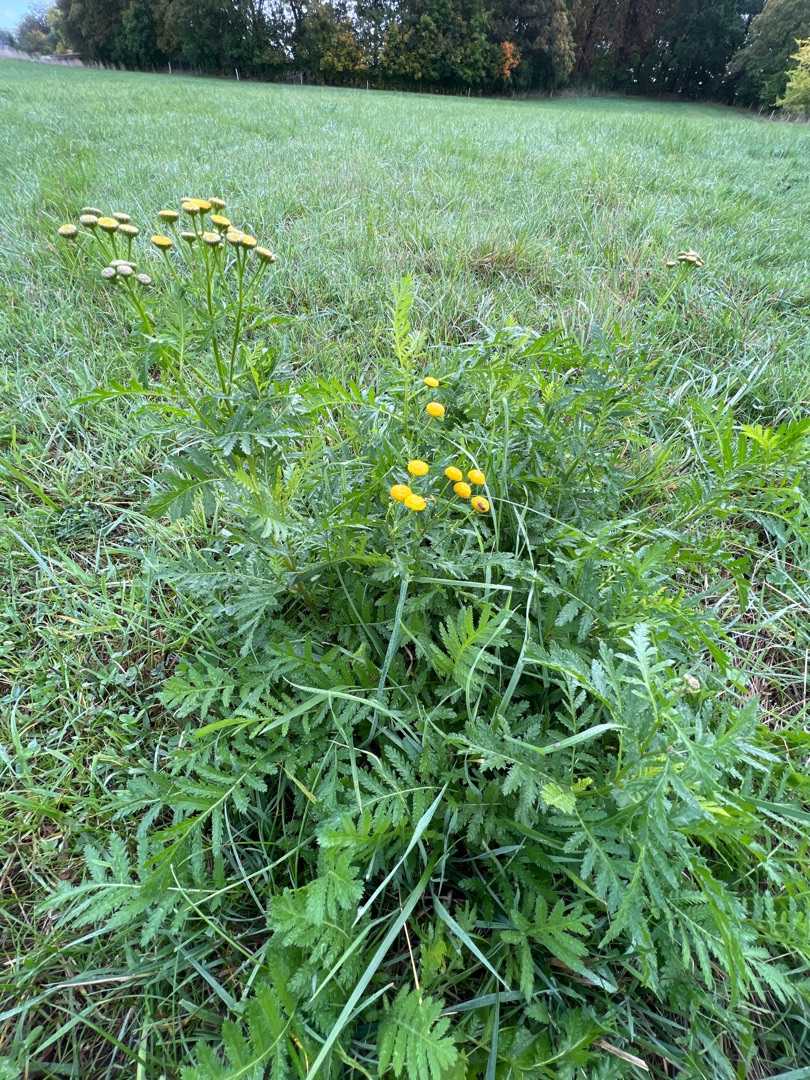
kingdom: Plantae
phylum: Tracheophyta
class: Magnoliopsida
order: Asterales
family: Asteraceae
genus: Tanacetum
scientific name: Tanacetum vulgare
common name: Rejnfan
